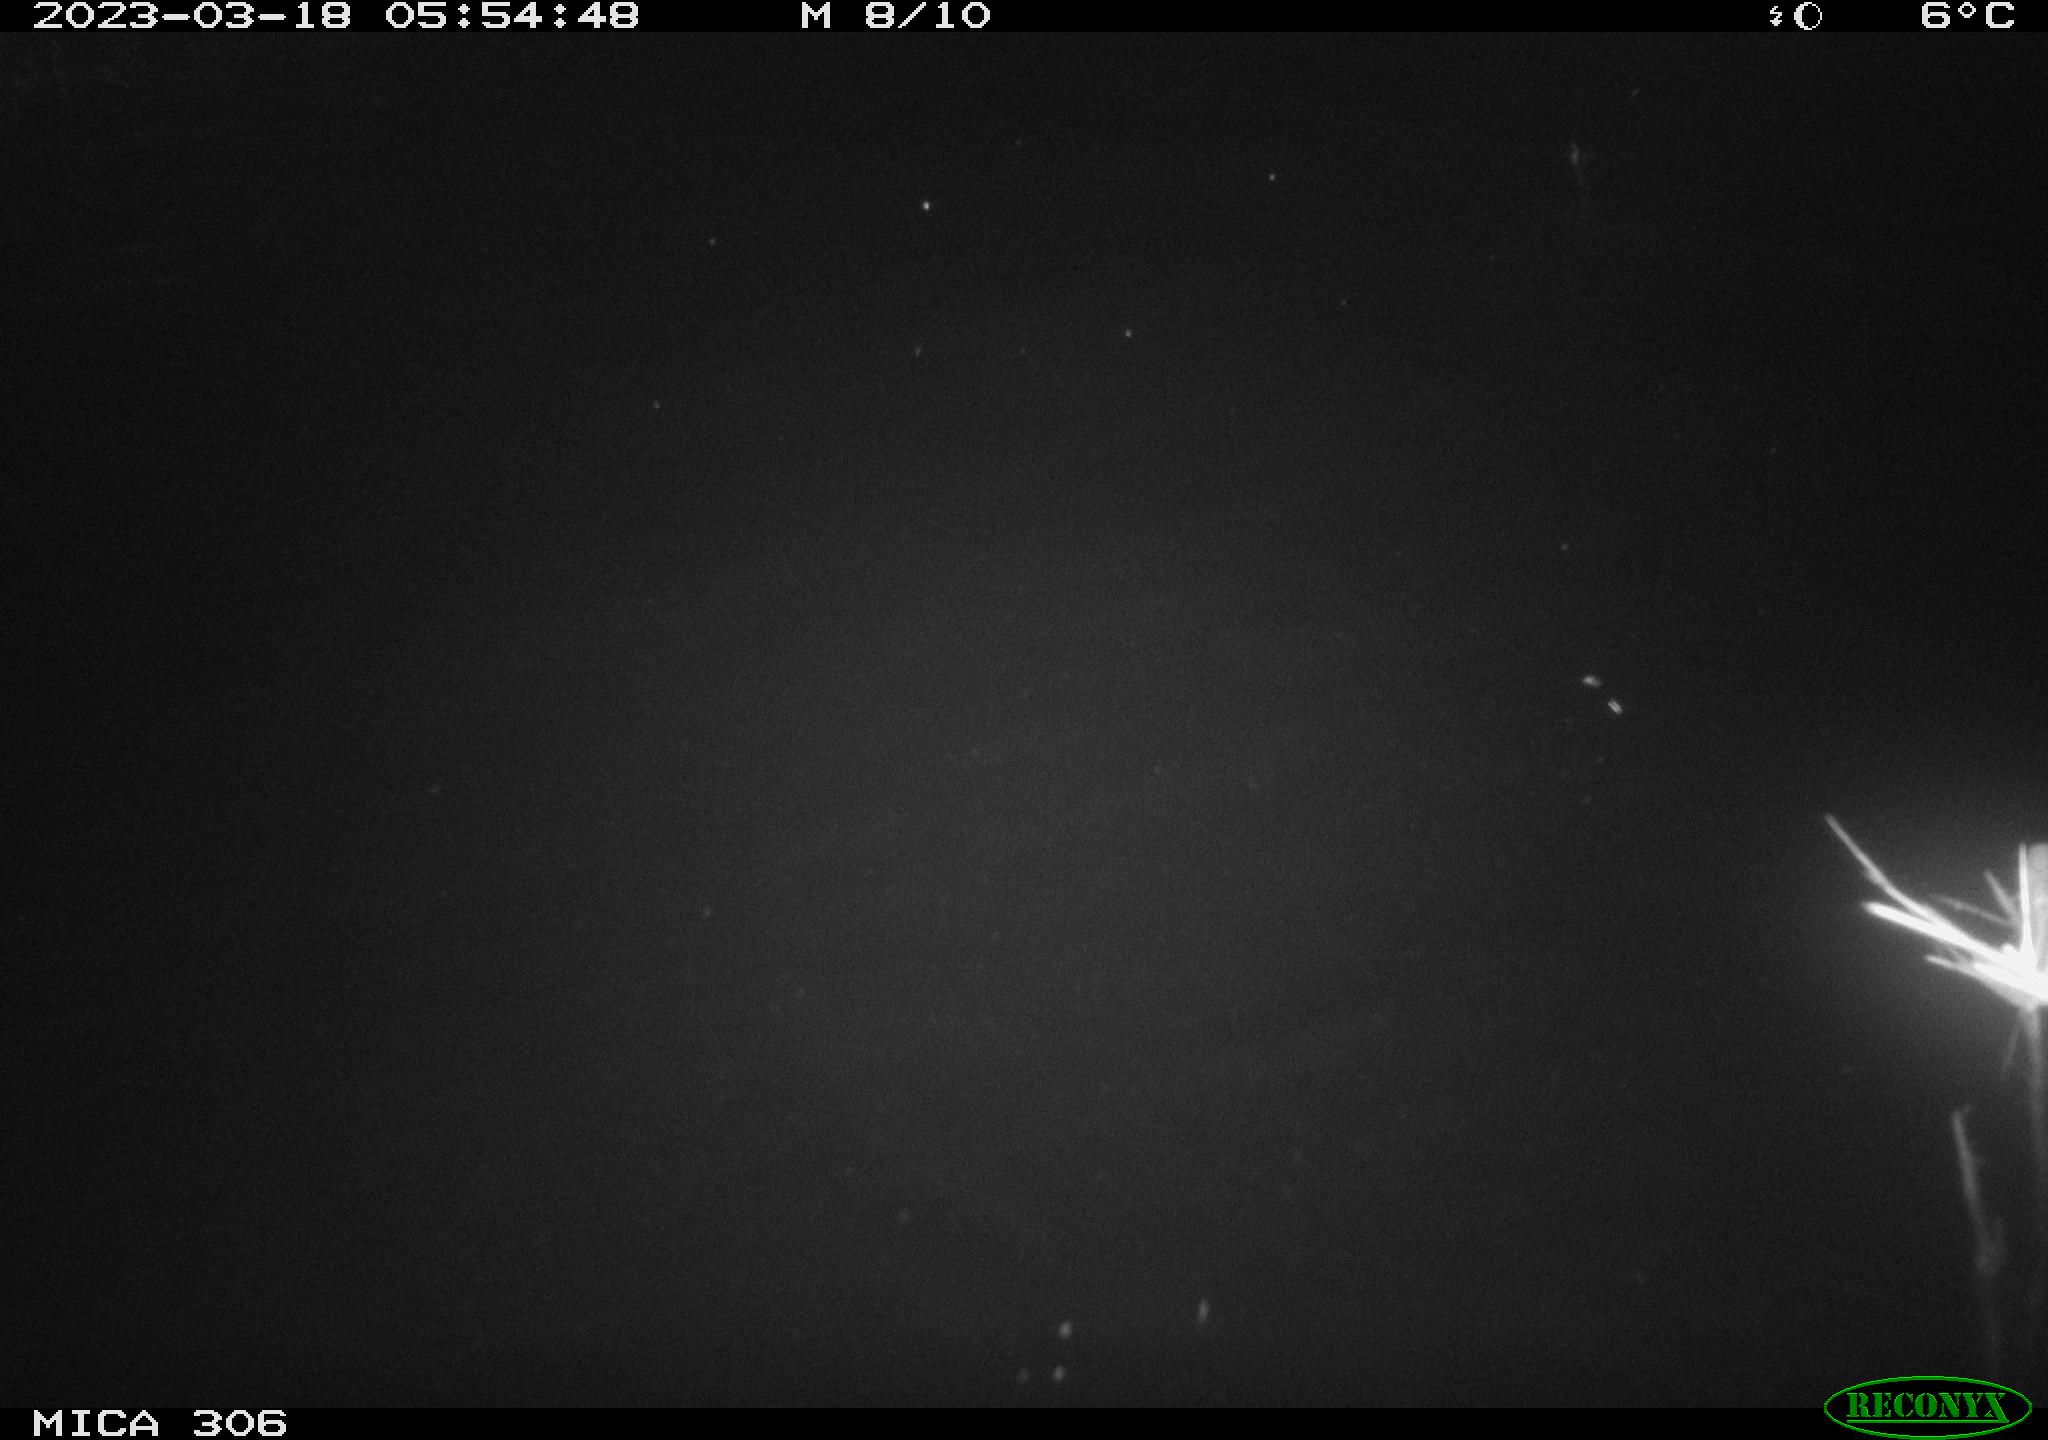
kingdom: Animalia
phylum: Chordata
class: Mammalia
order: Rodentia
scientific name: Rodentia
